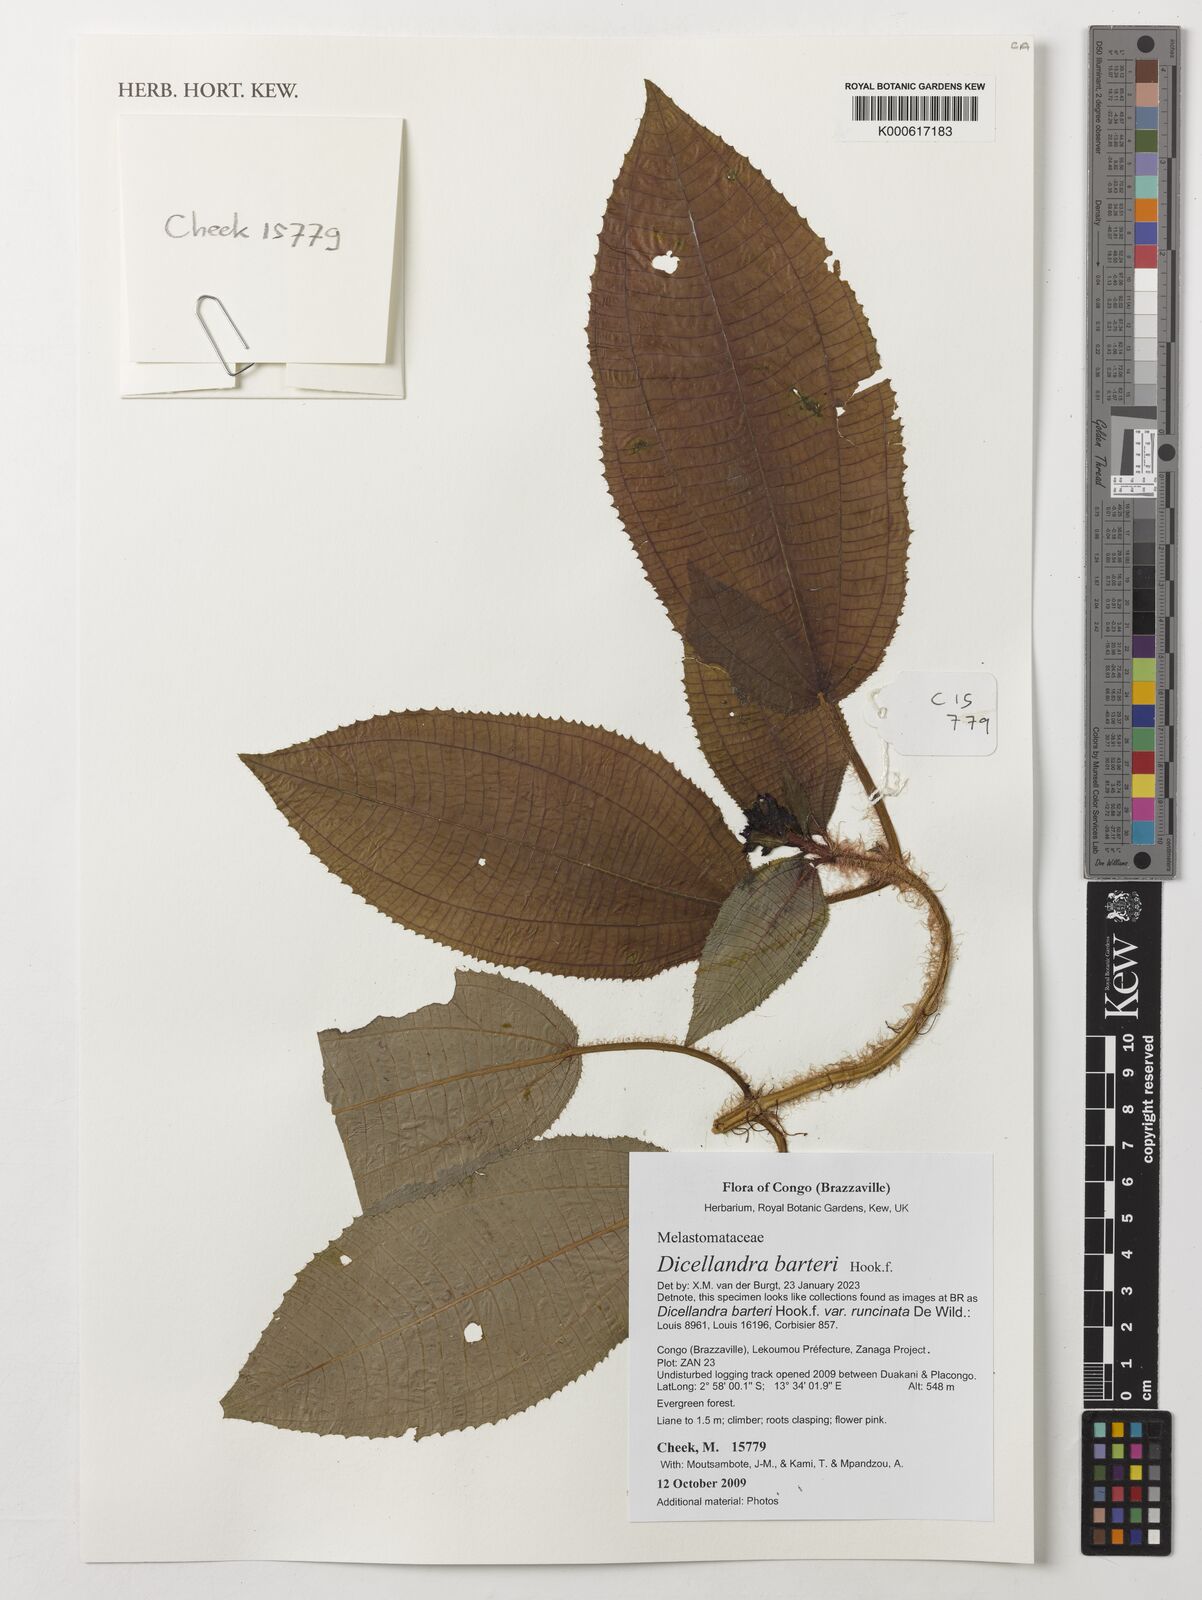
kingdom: Plantae
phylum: Tracheophyta
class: Magnoliopsida
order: Myrtales
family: Melastomataceae
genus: Dicellandra
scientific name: Dicellandra barteri
